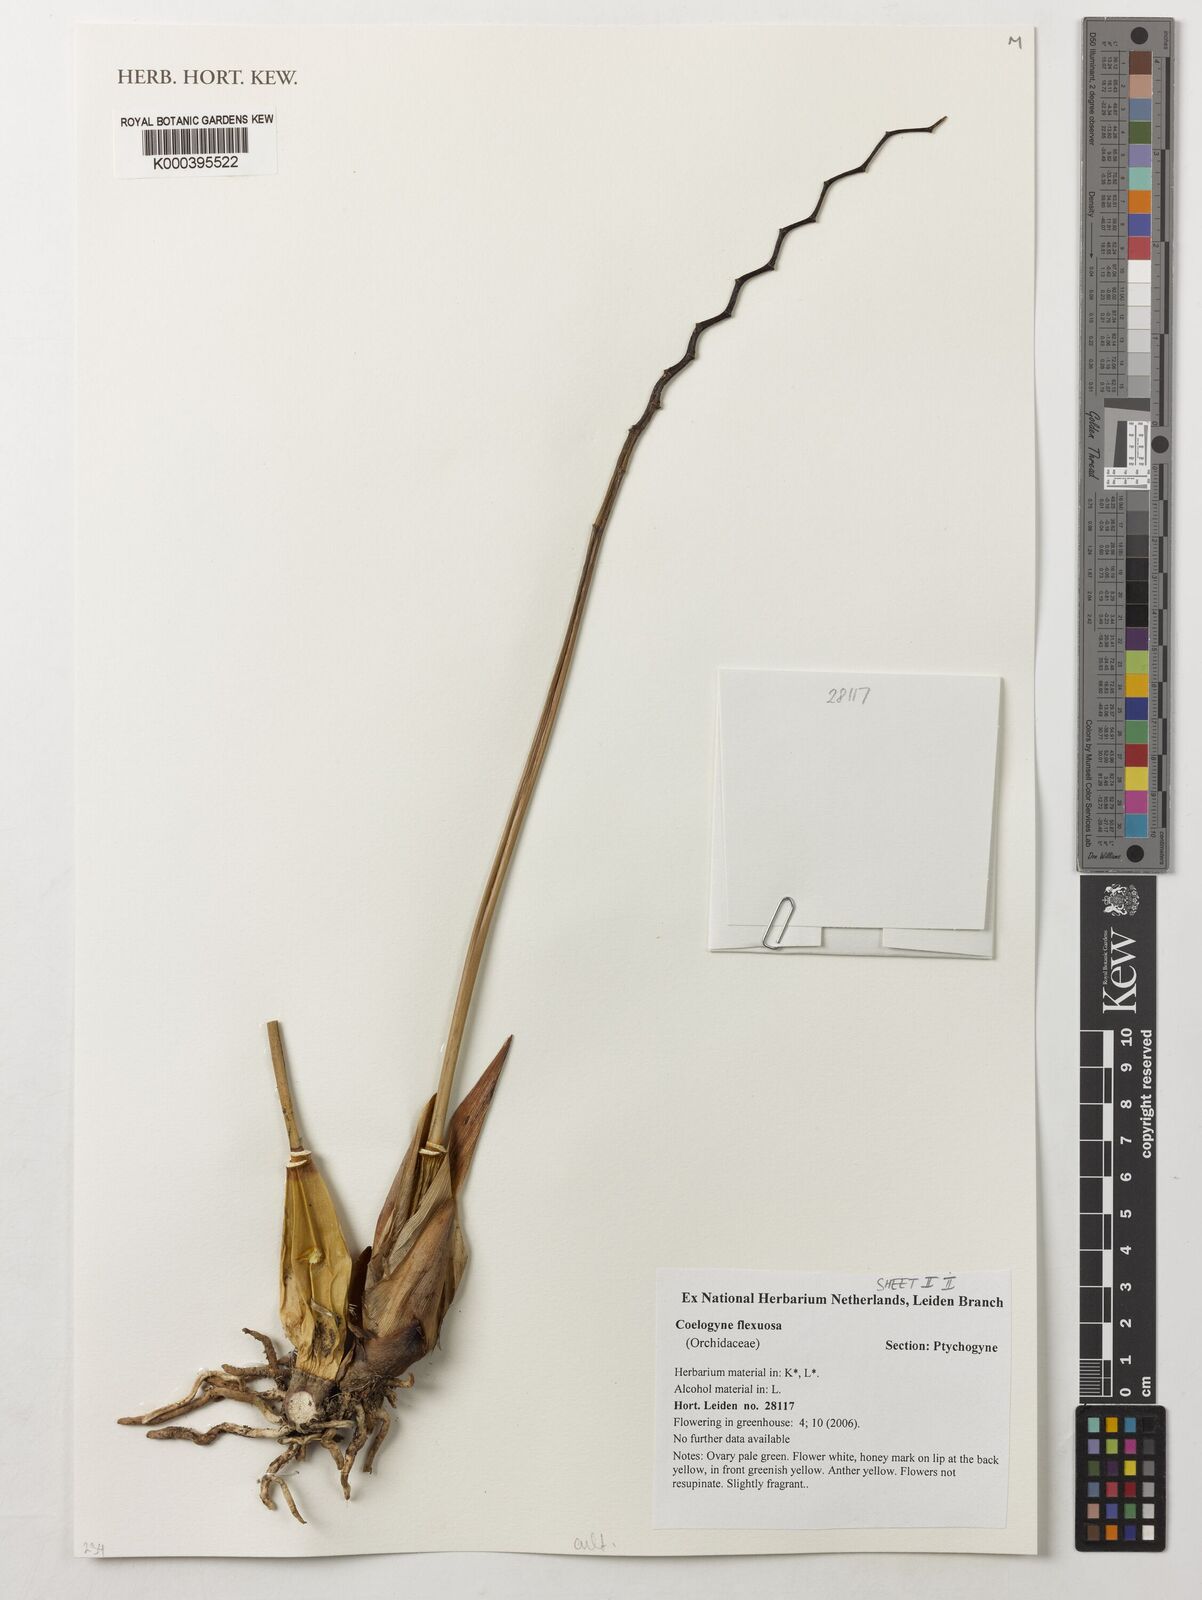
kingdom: Plantae
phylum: Tracheophyta
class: Liliopsida
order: Asparagales
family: Orchidaceae
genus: Coelogyne
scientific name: Coelogyne flexuosa
